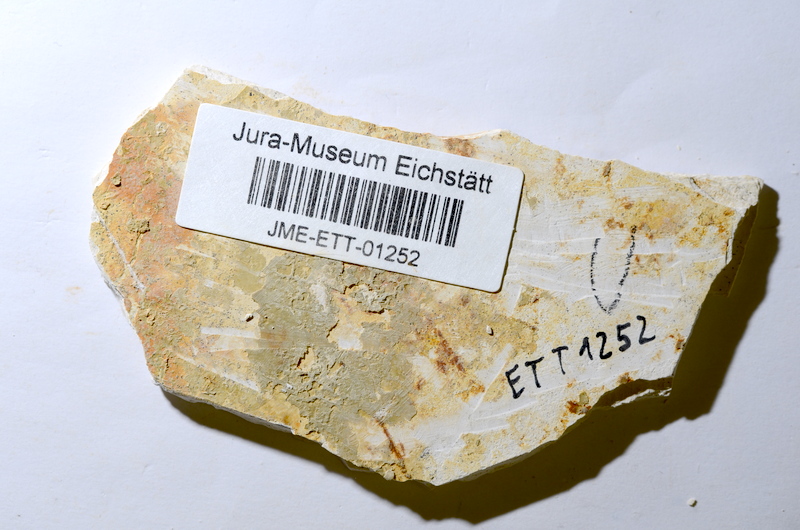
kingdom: Animalia
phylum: Chordata
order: Salmoniformes
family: Orthogonikleithridae
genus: Orthogonikleithrus
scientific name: Orthogonikleithrus hoelli
